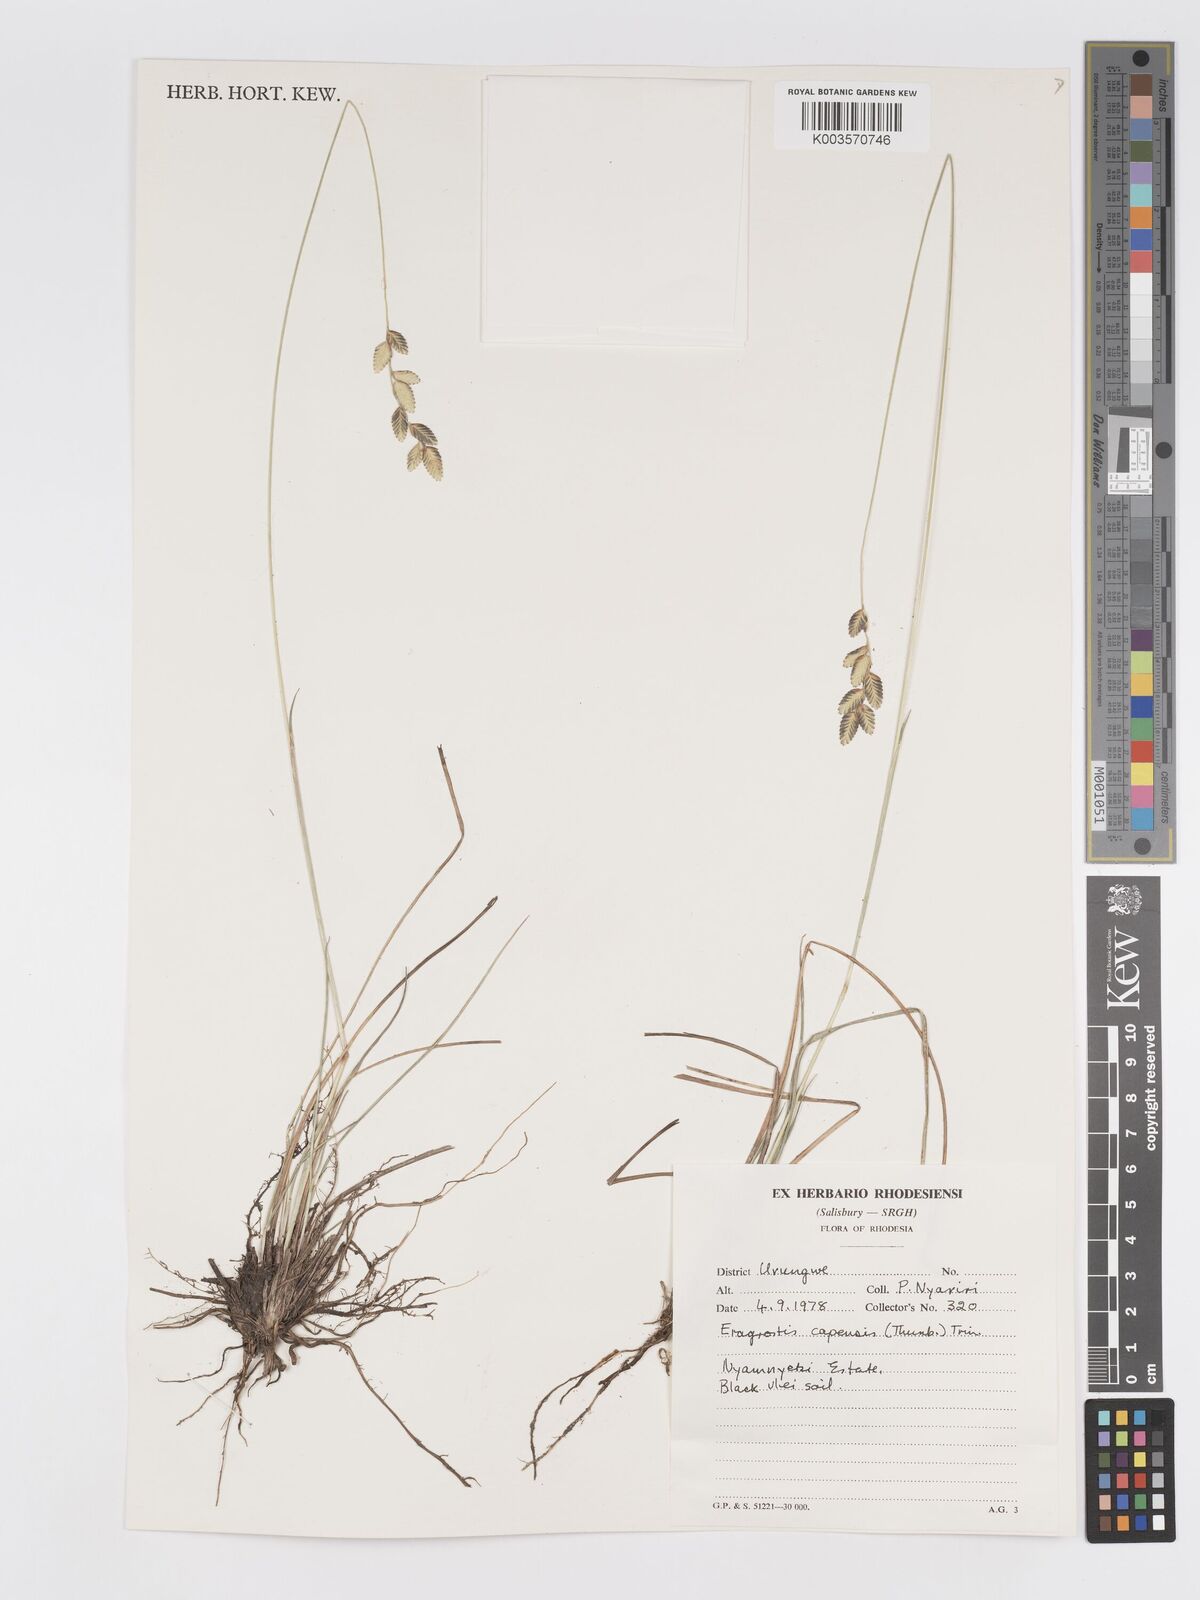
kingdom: Plantae
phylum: Tracheophyta
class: Liliopsida
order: Poales
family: Poaceae
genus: Eragrostis
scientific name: Eragrostis capensis
